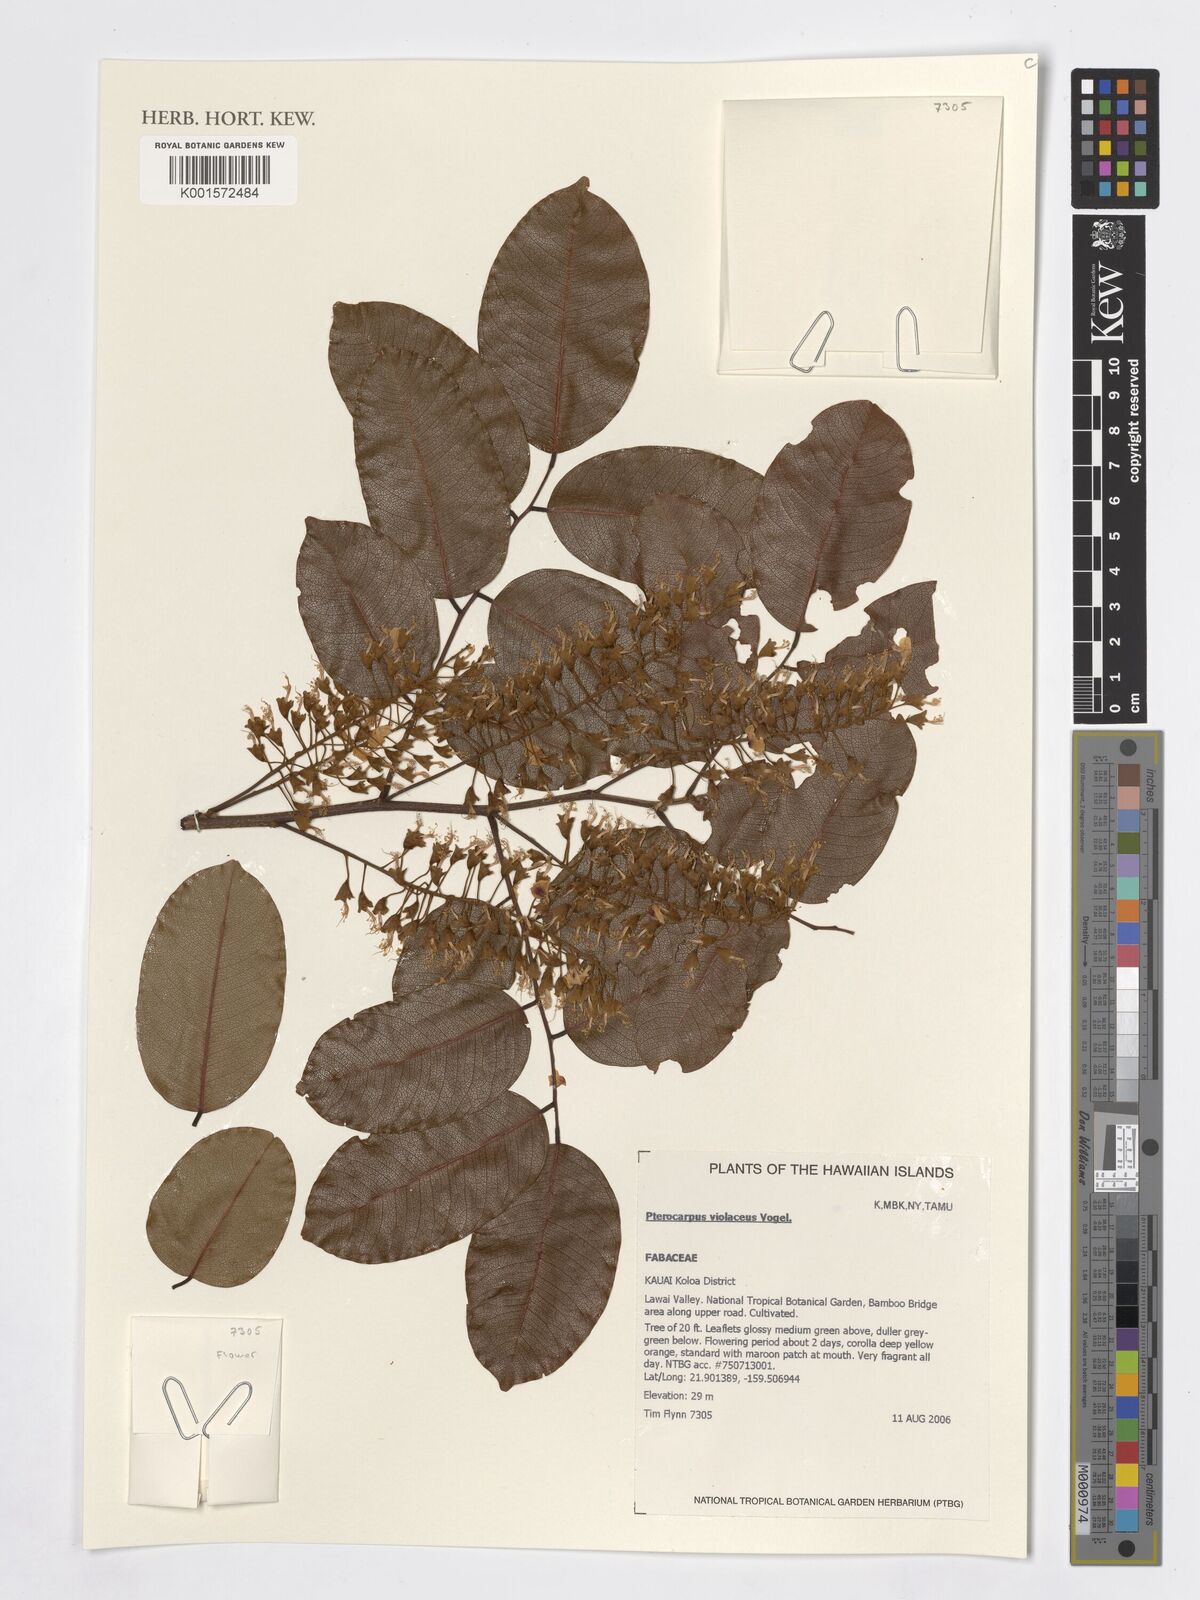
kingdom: Plantae
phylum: Tracheophyta
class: Magnoliopsida
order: Fabales
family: Fabaceae
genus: Pterocarpus
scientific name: Pterocarpus rohrii
